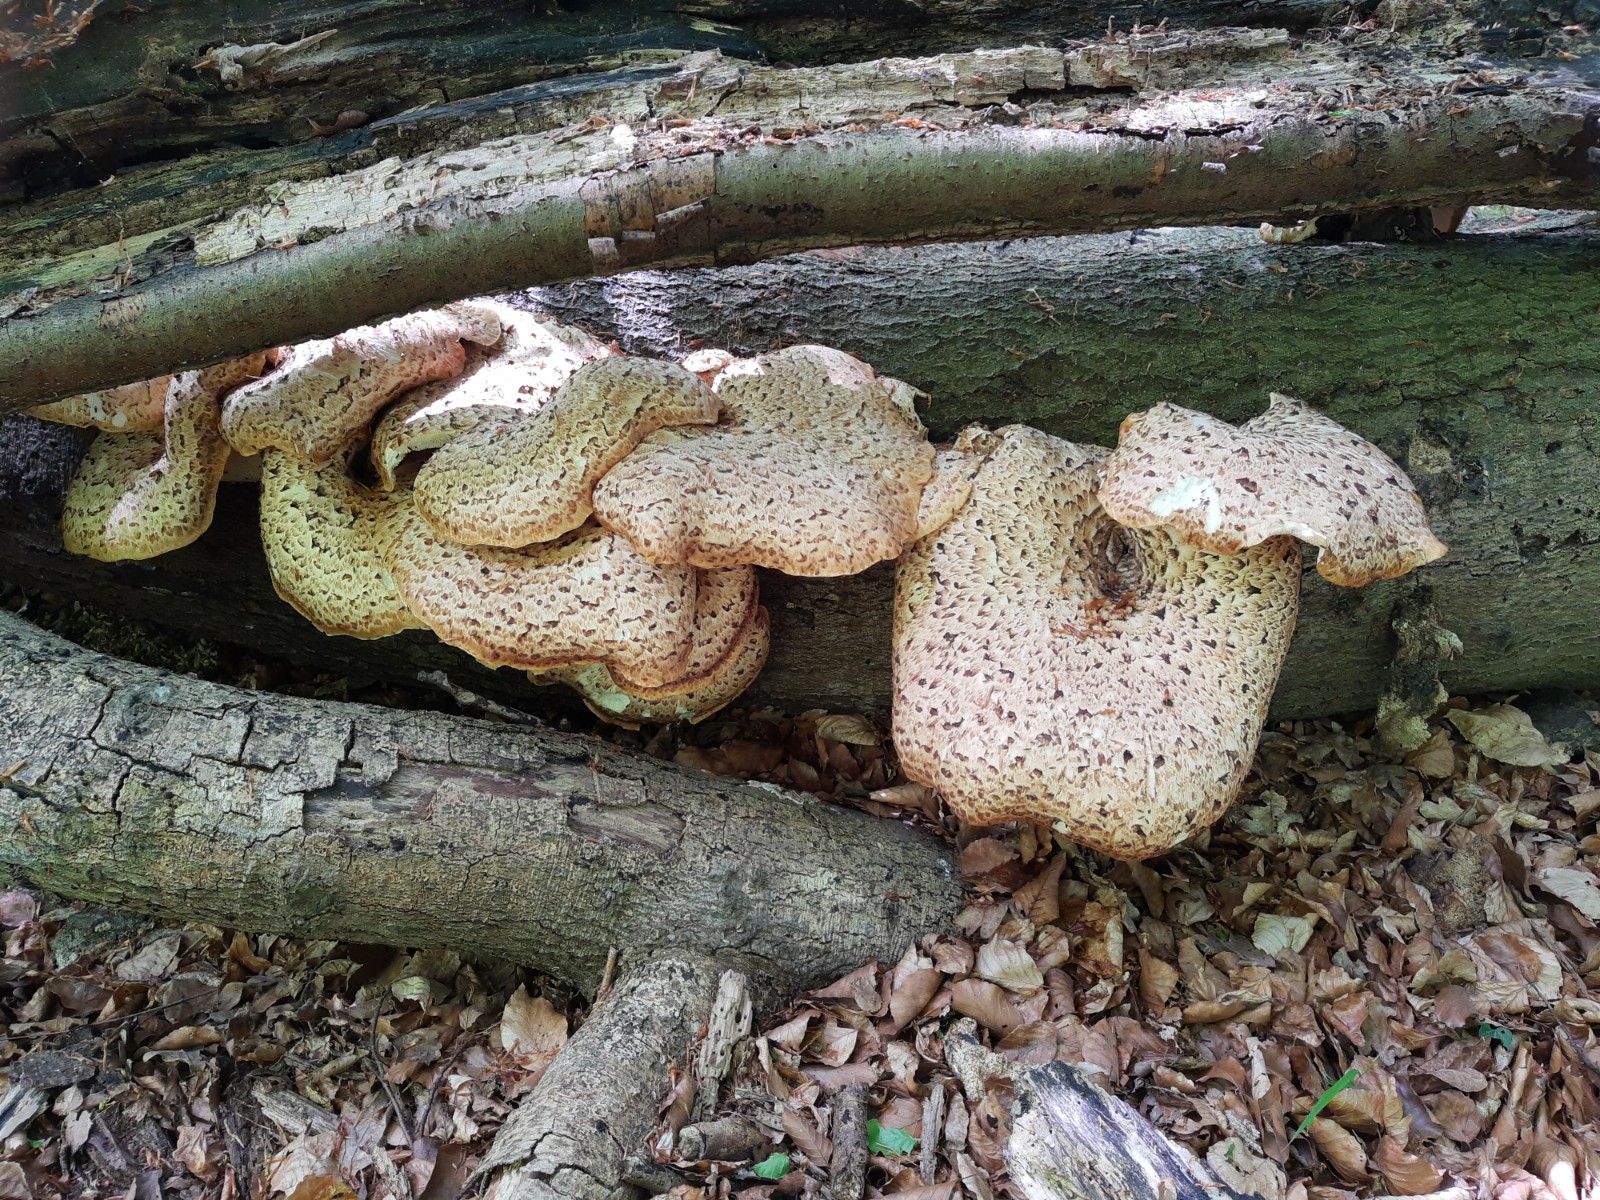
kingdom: Fungi
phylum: Basidiomycota
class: Agaricomycetes
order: Polyporales
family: Polyporaceae
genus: Cerioporus
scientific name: Cerioporus squamosus
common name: skællet stilkporesvamp
